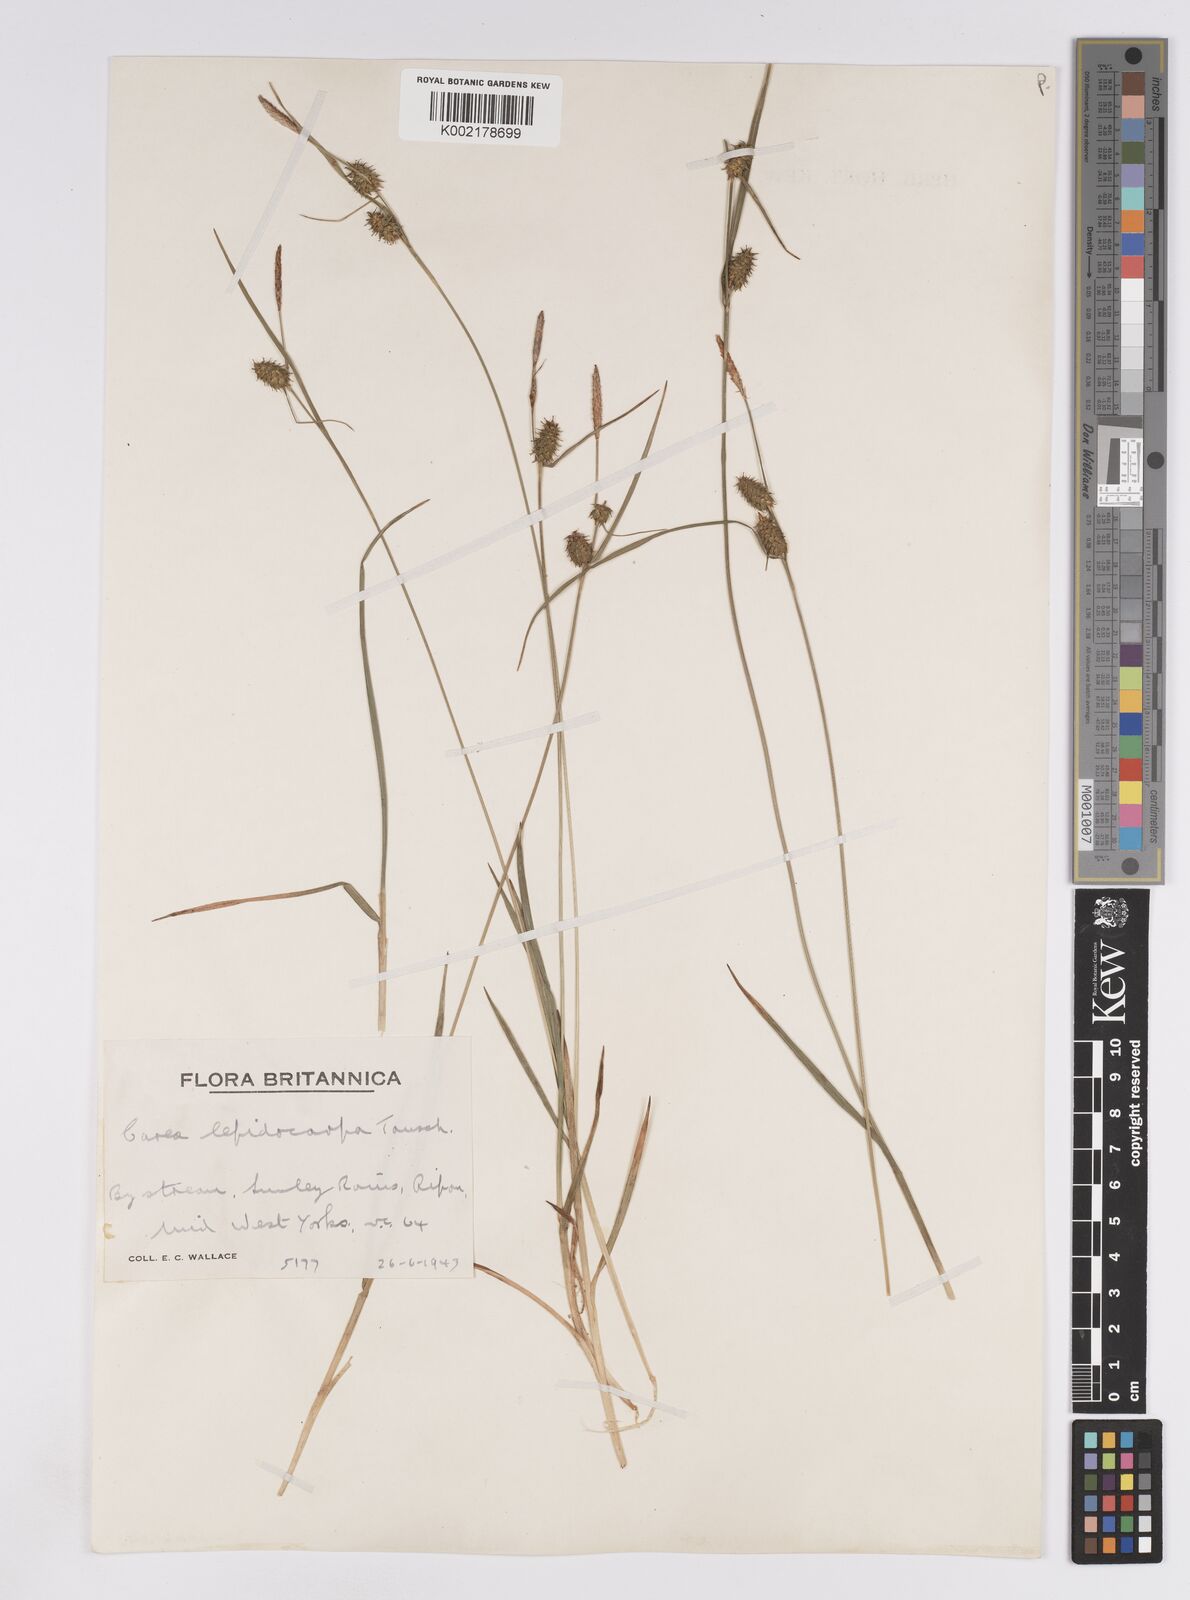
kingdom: Plantae
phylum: Tracheophyta
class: Liliopsida
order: Poales
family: Cyperaceae
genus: Carex
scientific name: Carex lepidocarpa
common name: Long-stalked yellow-sedge
